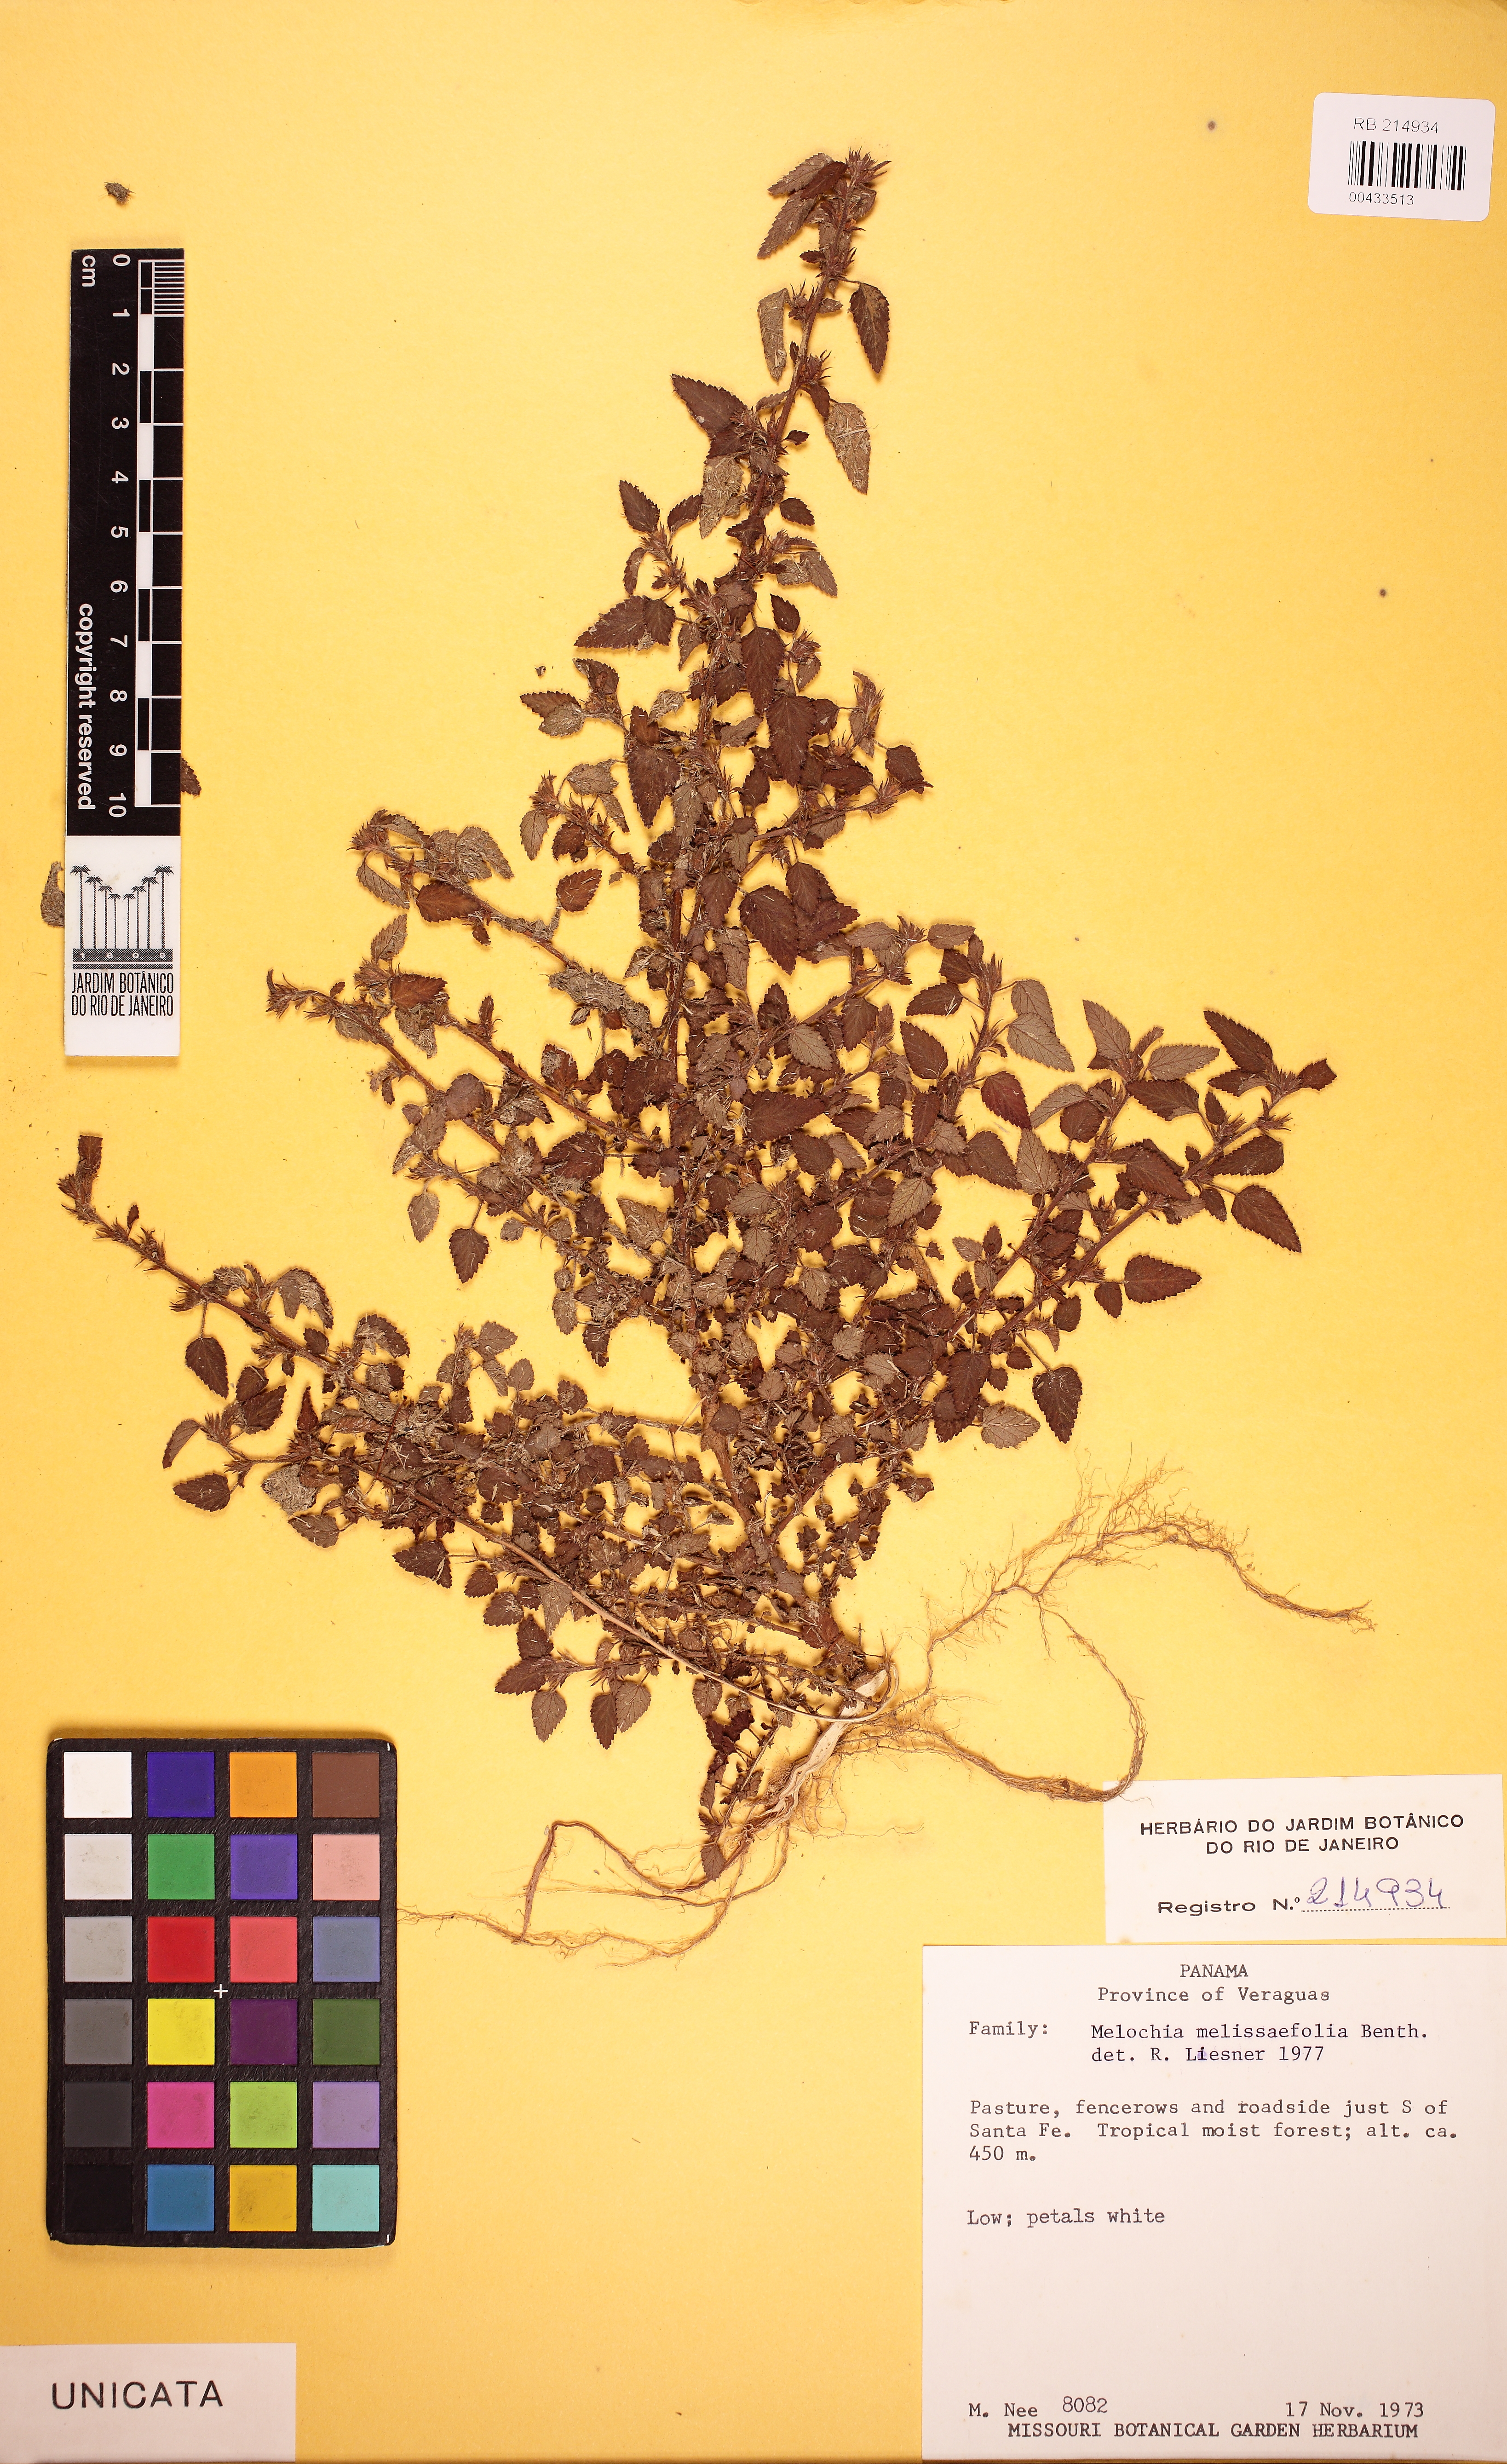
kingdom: Plantae
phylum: Tracheophyta
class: Magnoliopsida
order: Malvales
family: Malvaceae
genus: Melochia
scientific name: Melochia melissifolia
